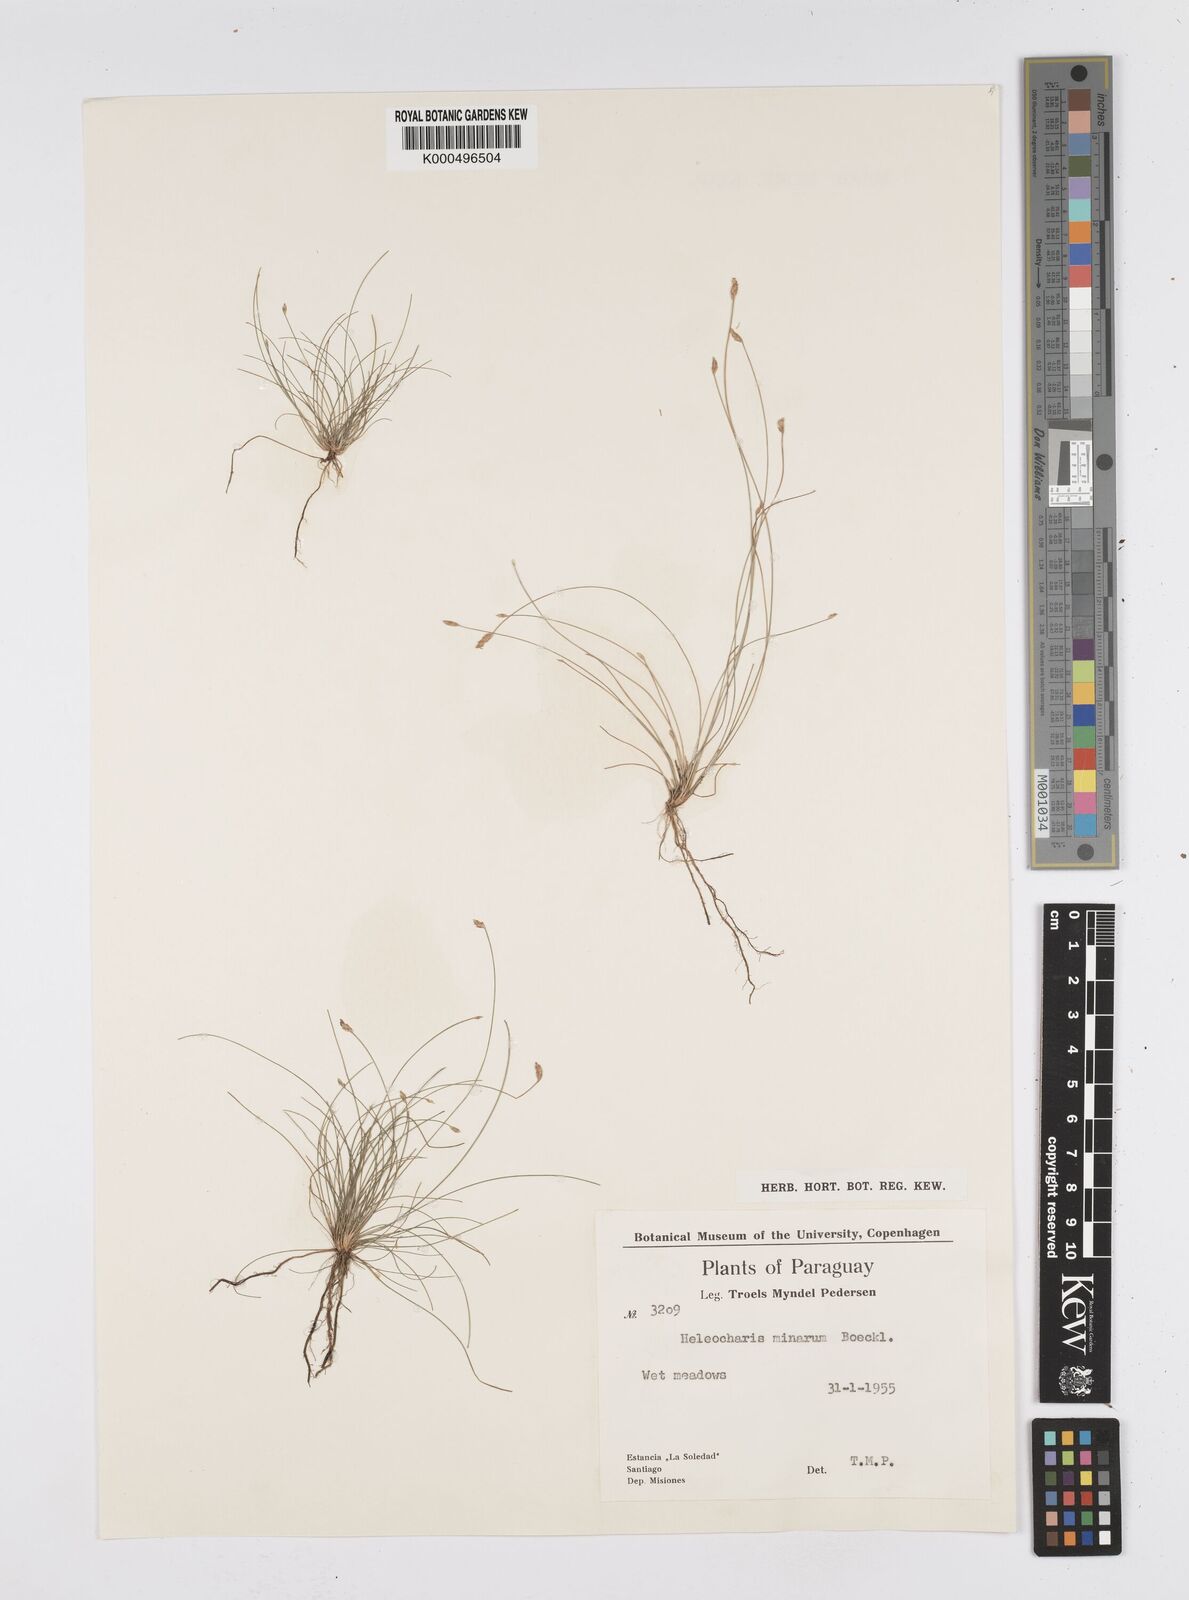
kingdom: Plantae
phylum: Tracheophyta
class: Liliopsida
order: Poales
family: Cyperaceae
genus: Eleocharis
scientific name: Eleocharis minarum
